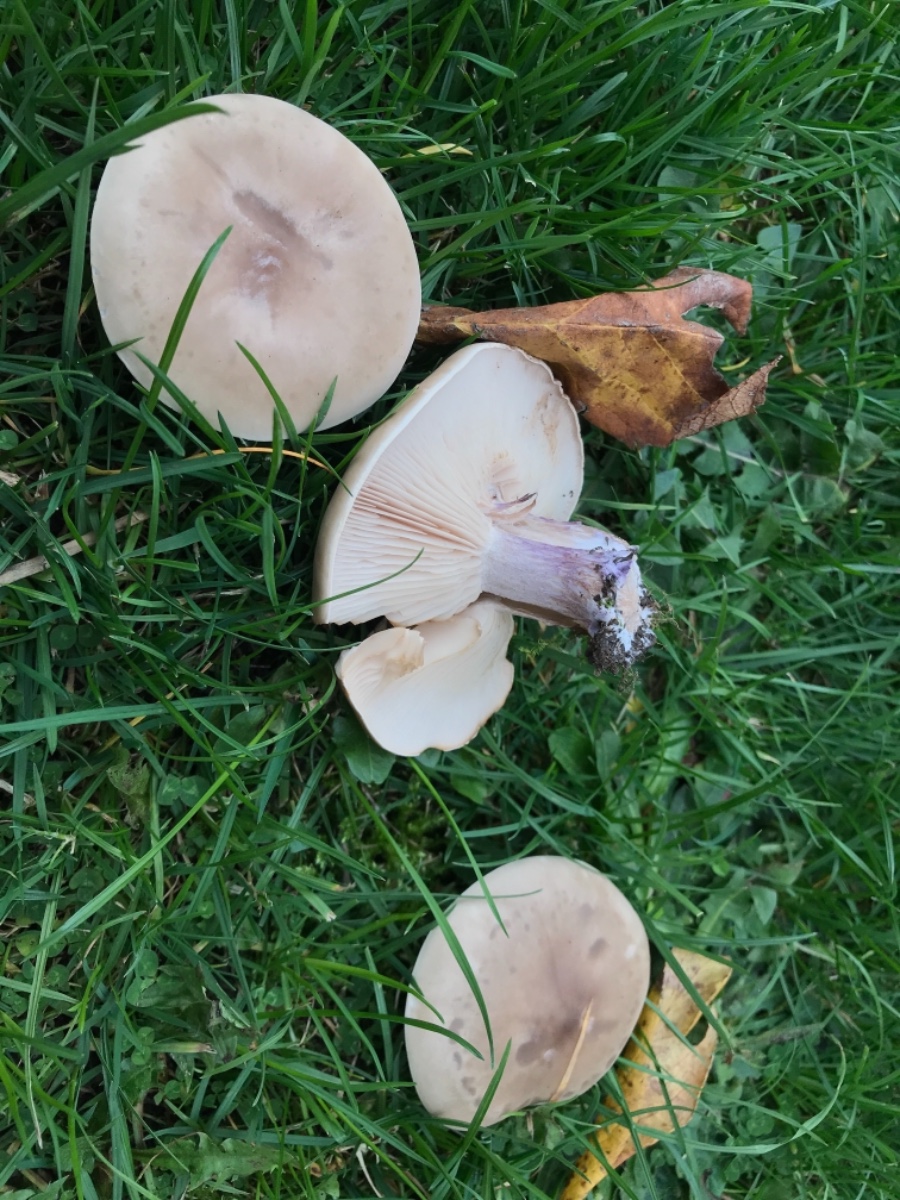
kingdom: Fungi
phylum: Basidiomycota
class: Agaricomycetes
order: Agaricales
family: Tricholomataceae
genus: Lepista
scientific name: Lepista personata
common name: bleg hekseringshat
